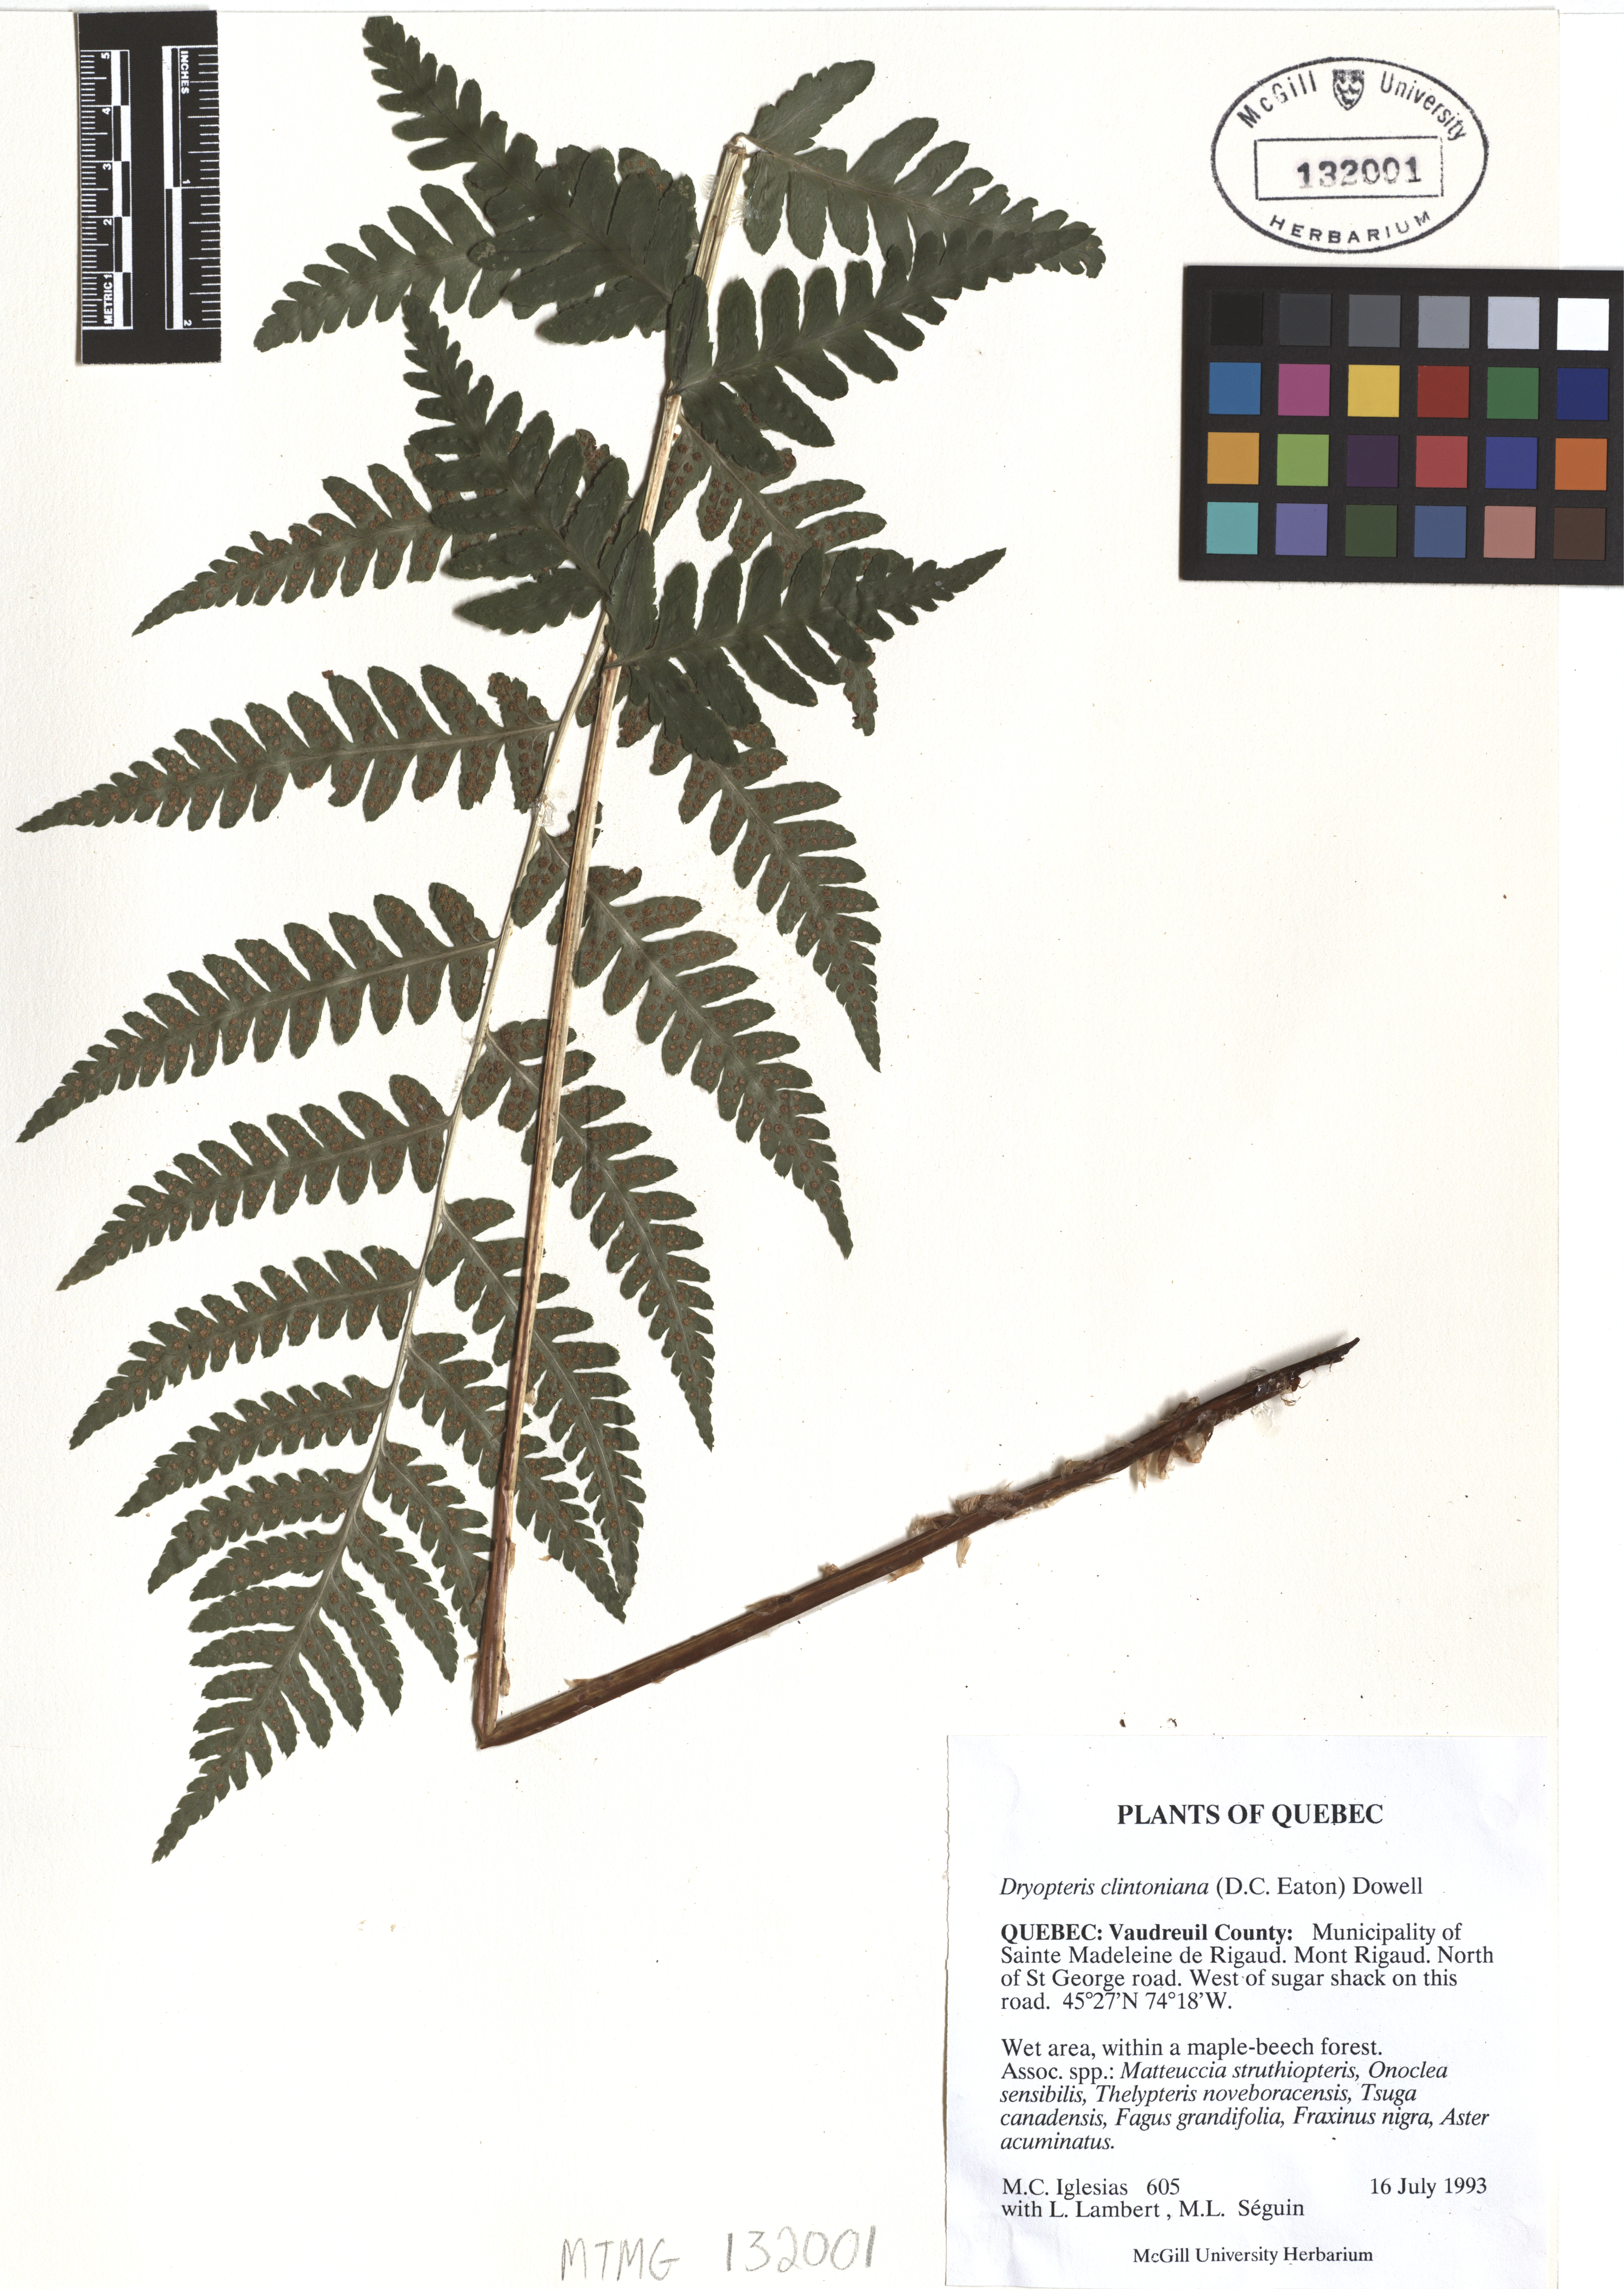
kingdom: Plantae
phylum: Tracheophyta
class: Polypodiopsida
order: Polypodiales
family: Dryopteridaceae
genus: Dryopteris
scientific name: Dryopteris clintoniana
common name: Clinton's wood fern
